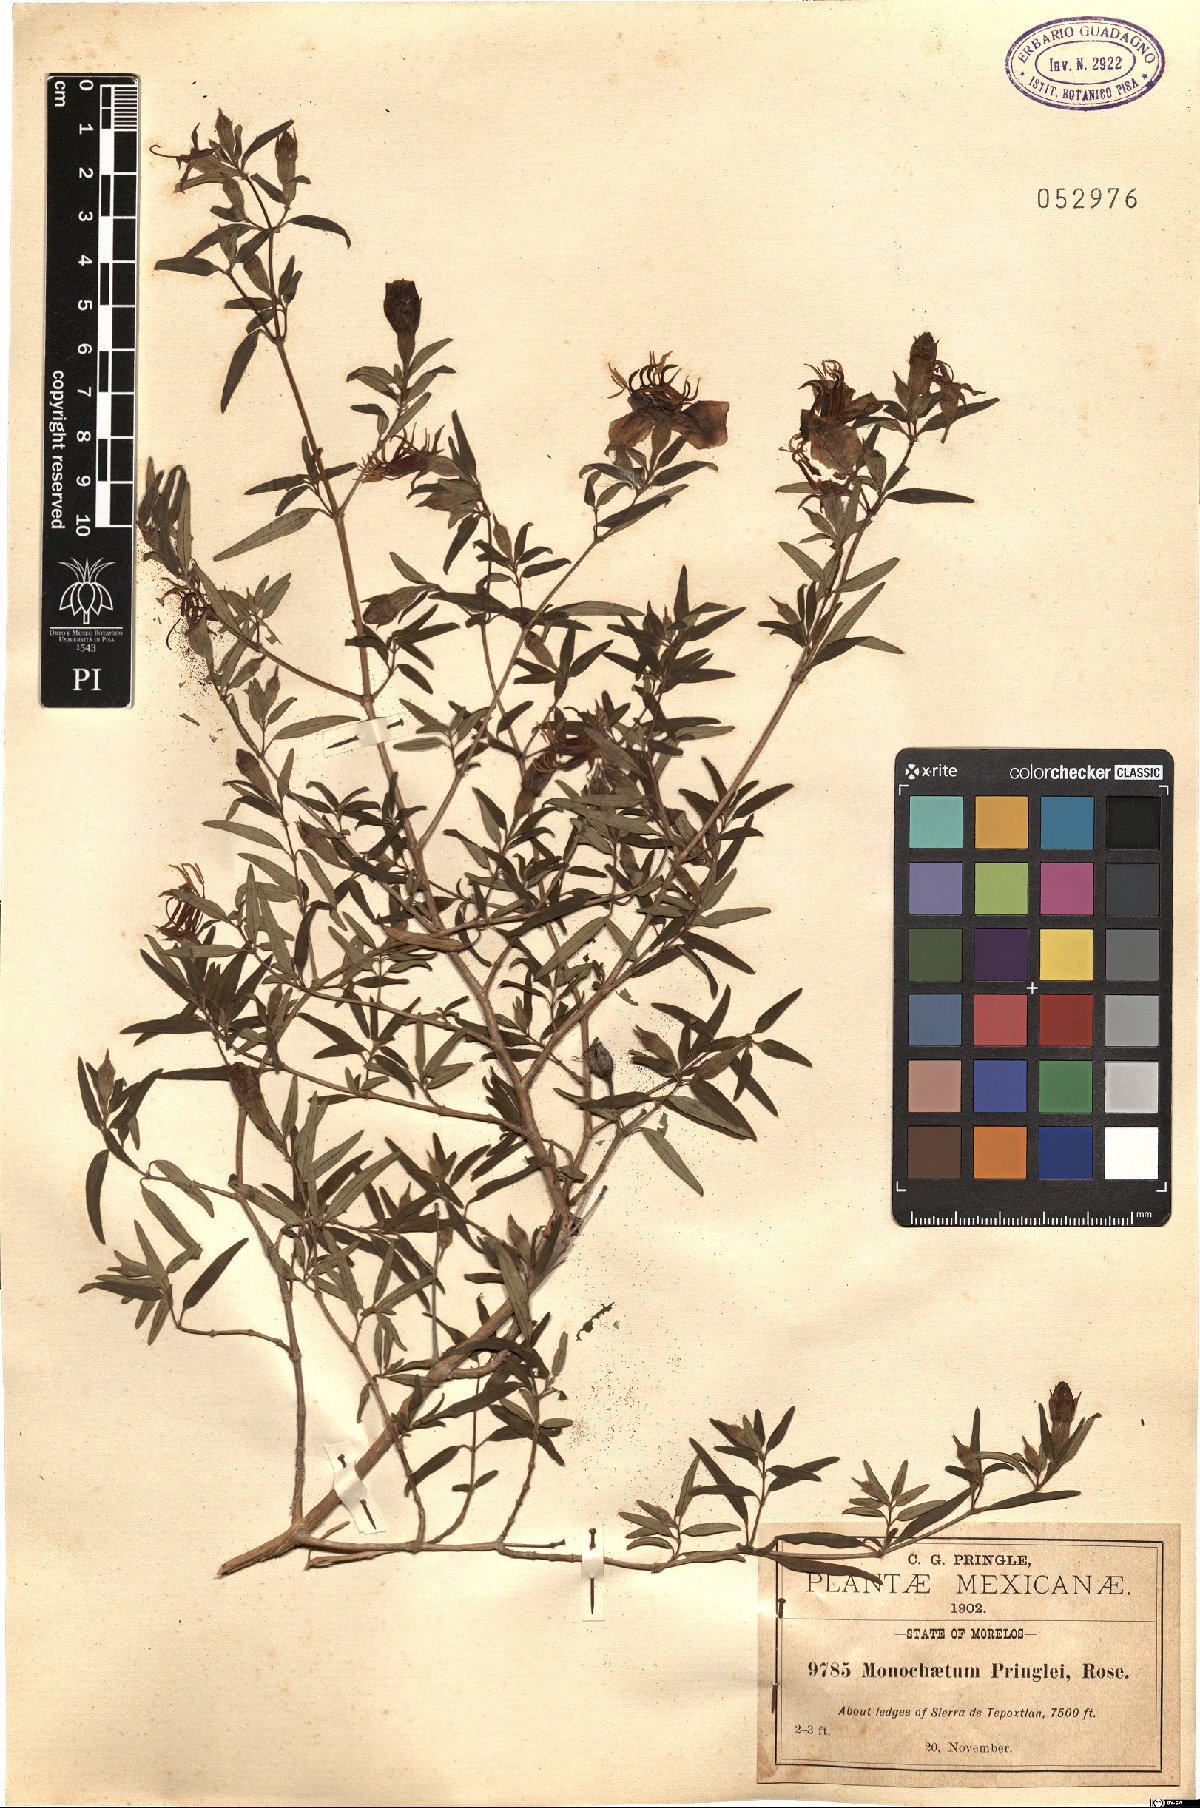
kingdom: Plantae
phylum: Tracheophyta
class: Magnoliopsida
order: Myrtales
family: Melastomataceae
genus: Monochaetum
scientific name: Monochaetum calcaratum
